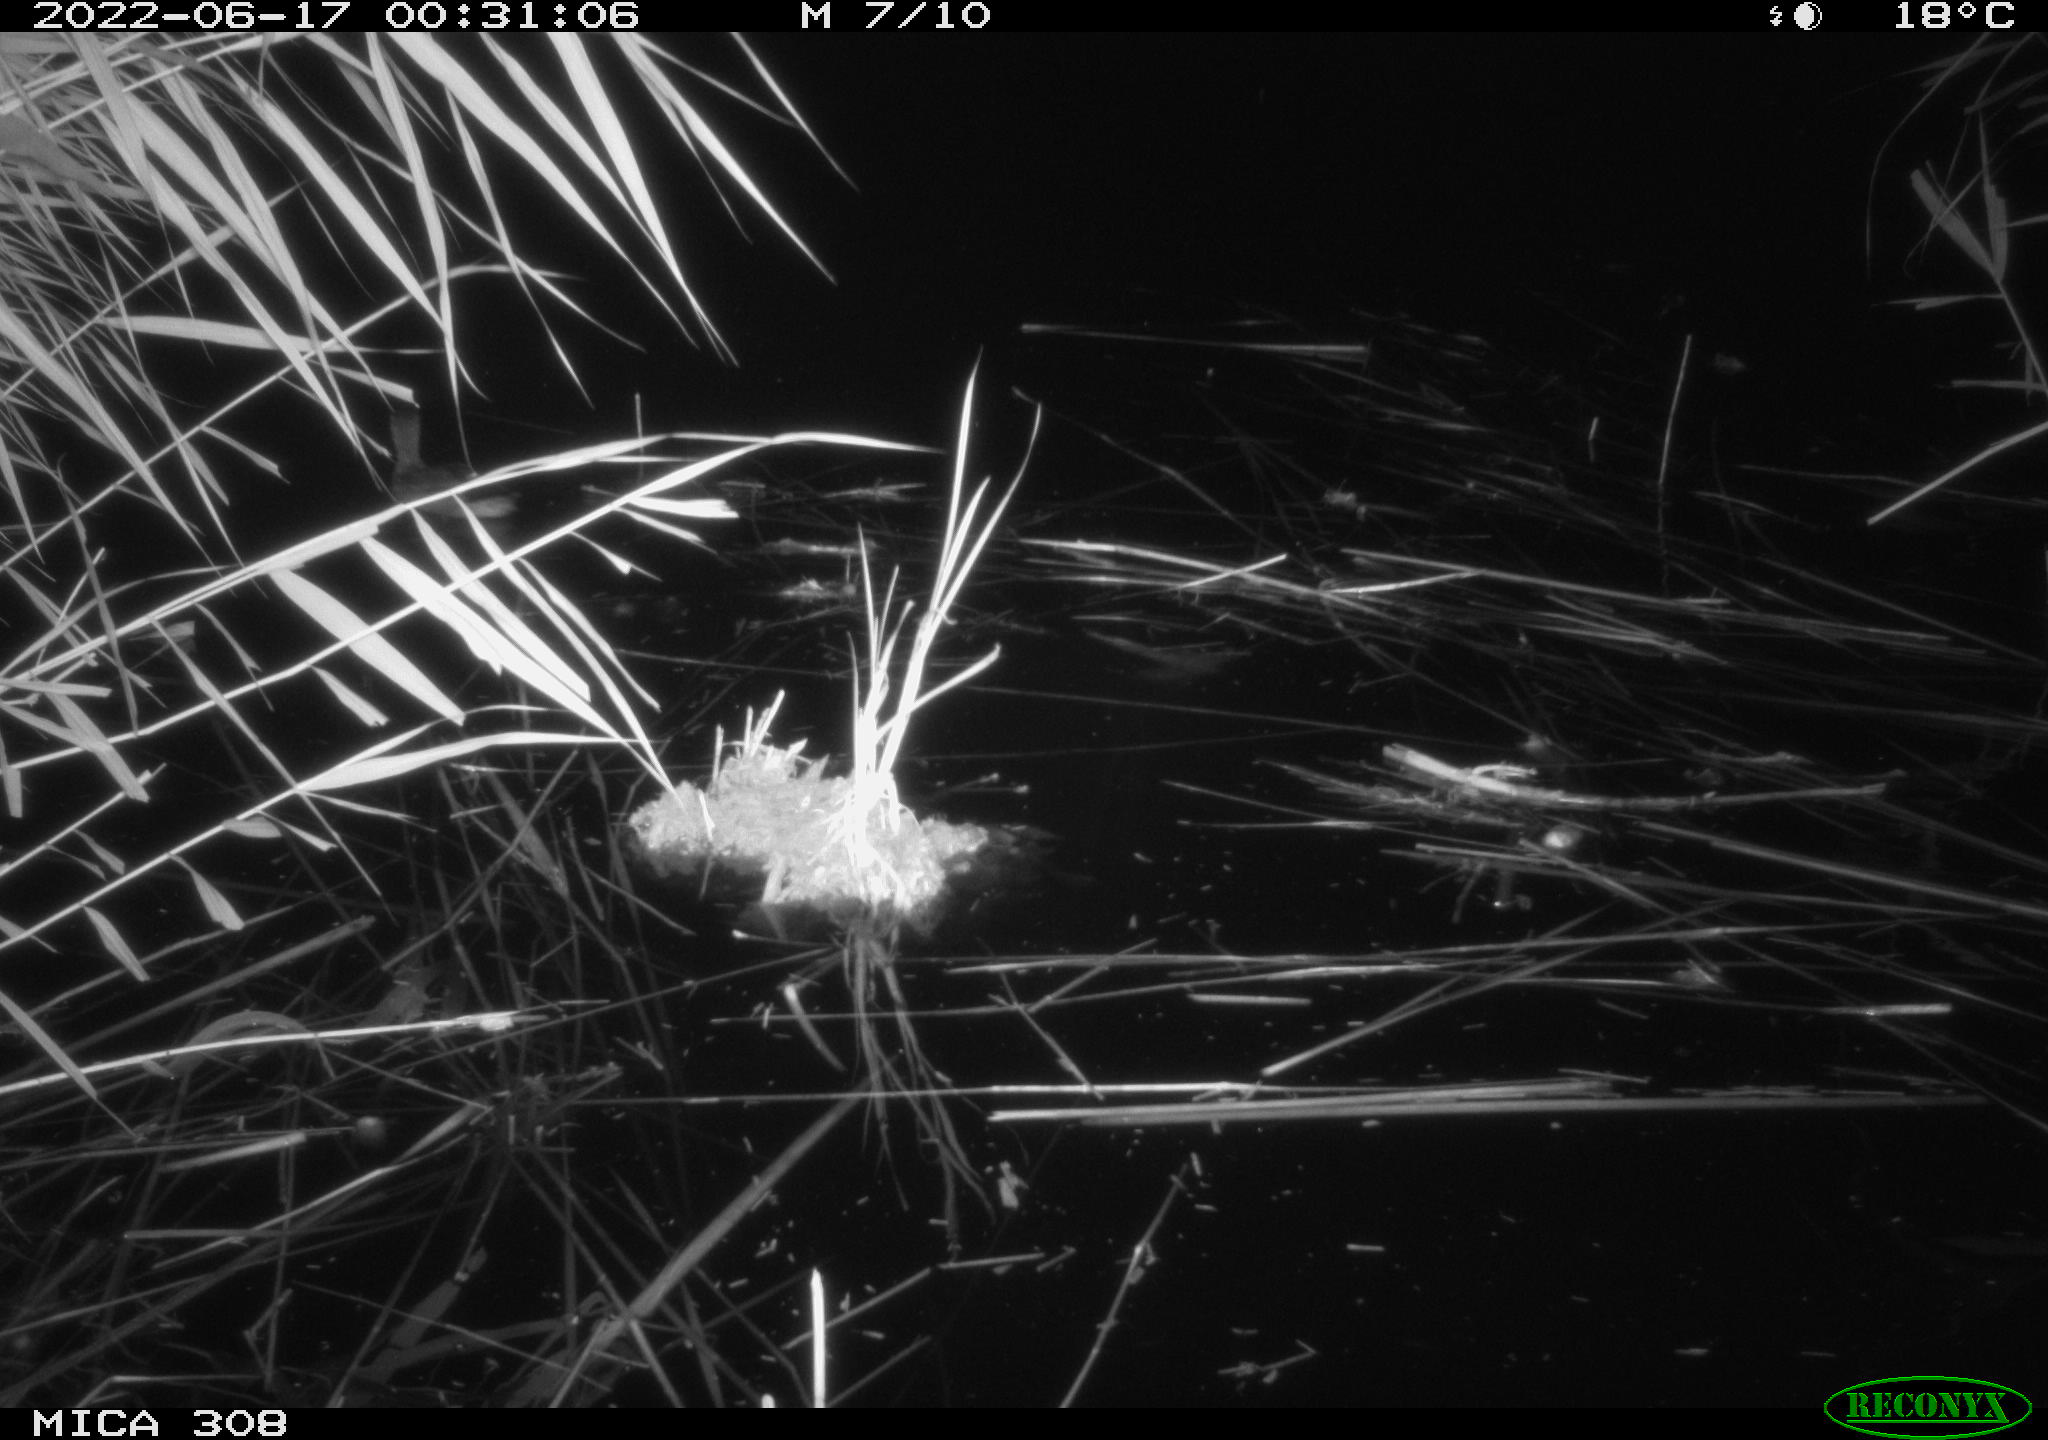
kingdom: Animalia
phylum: Chordata
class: Aves
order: Anseriformes
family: Anatidae
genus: Anas
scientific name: Anas platyrhynchos
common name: Mallard
